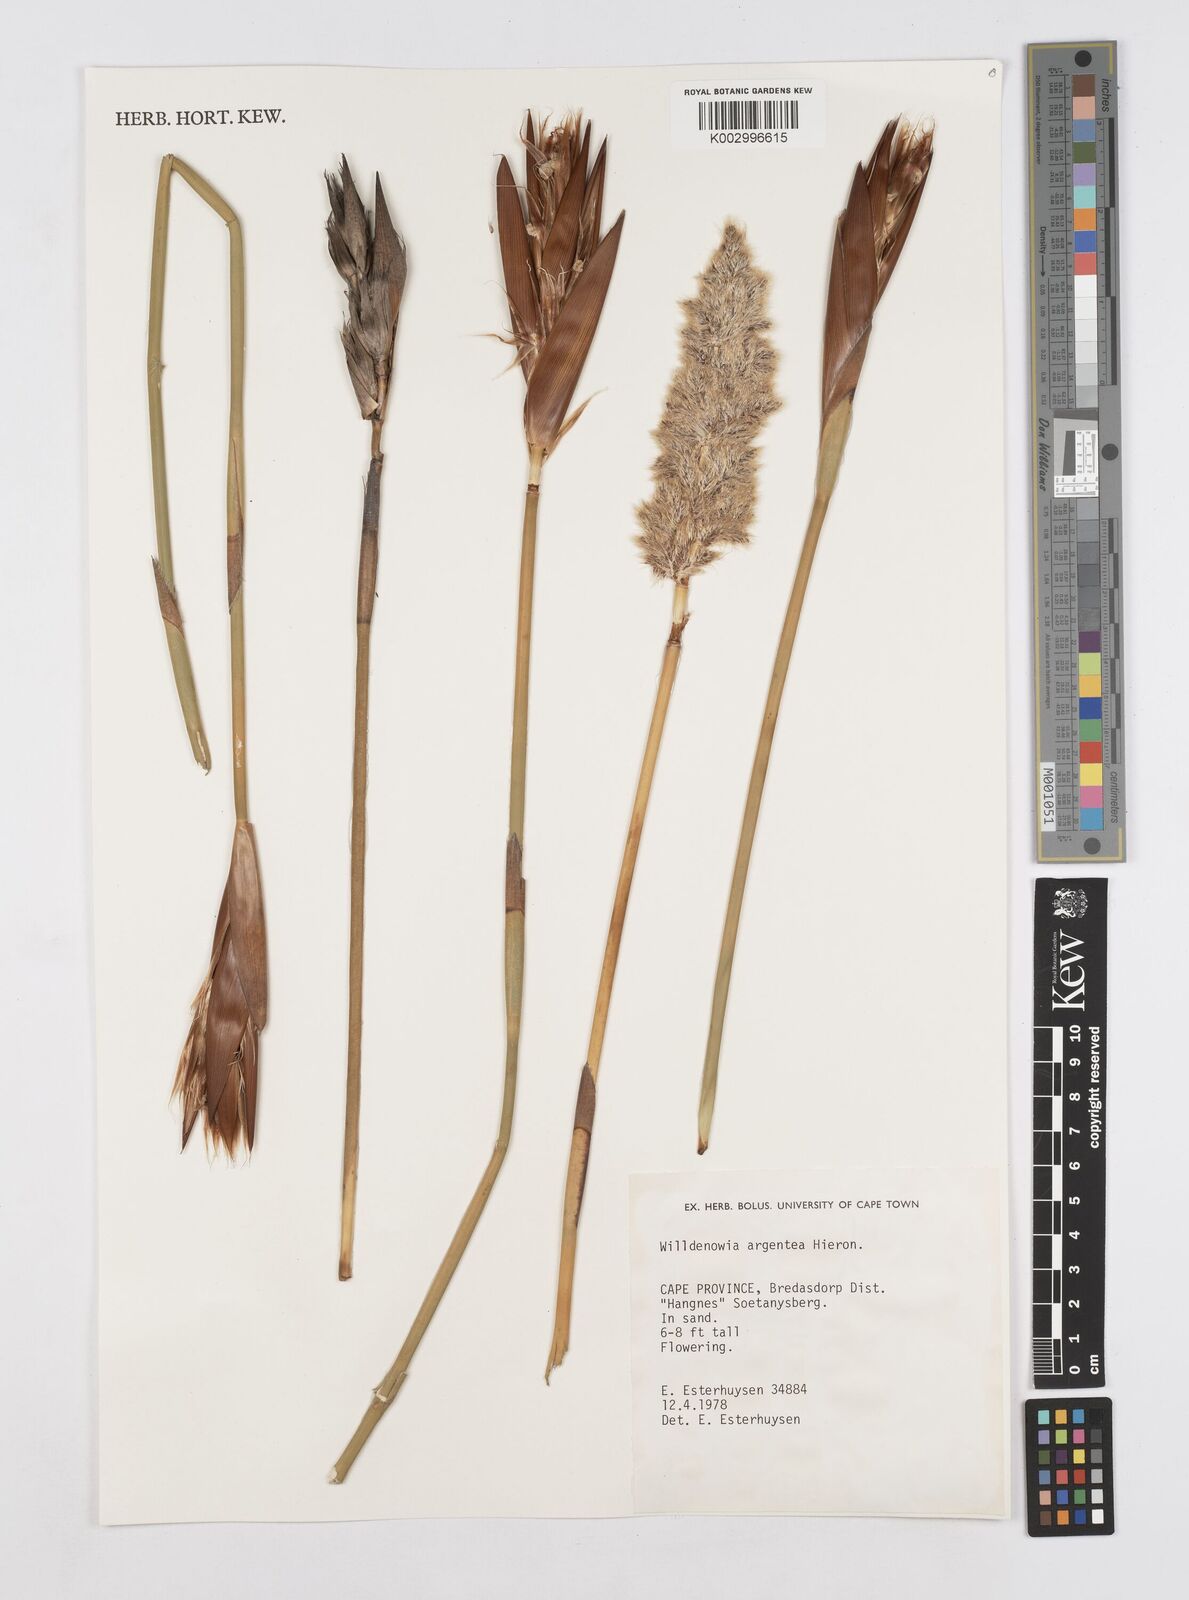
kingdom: Plantae
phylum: Tracheophyta
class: Liliopsida
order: Poales
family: Restionaceae
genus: Ceratocaryum
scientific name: Ceratocaryum argenteum
